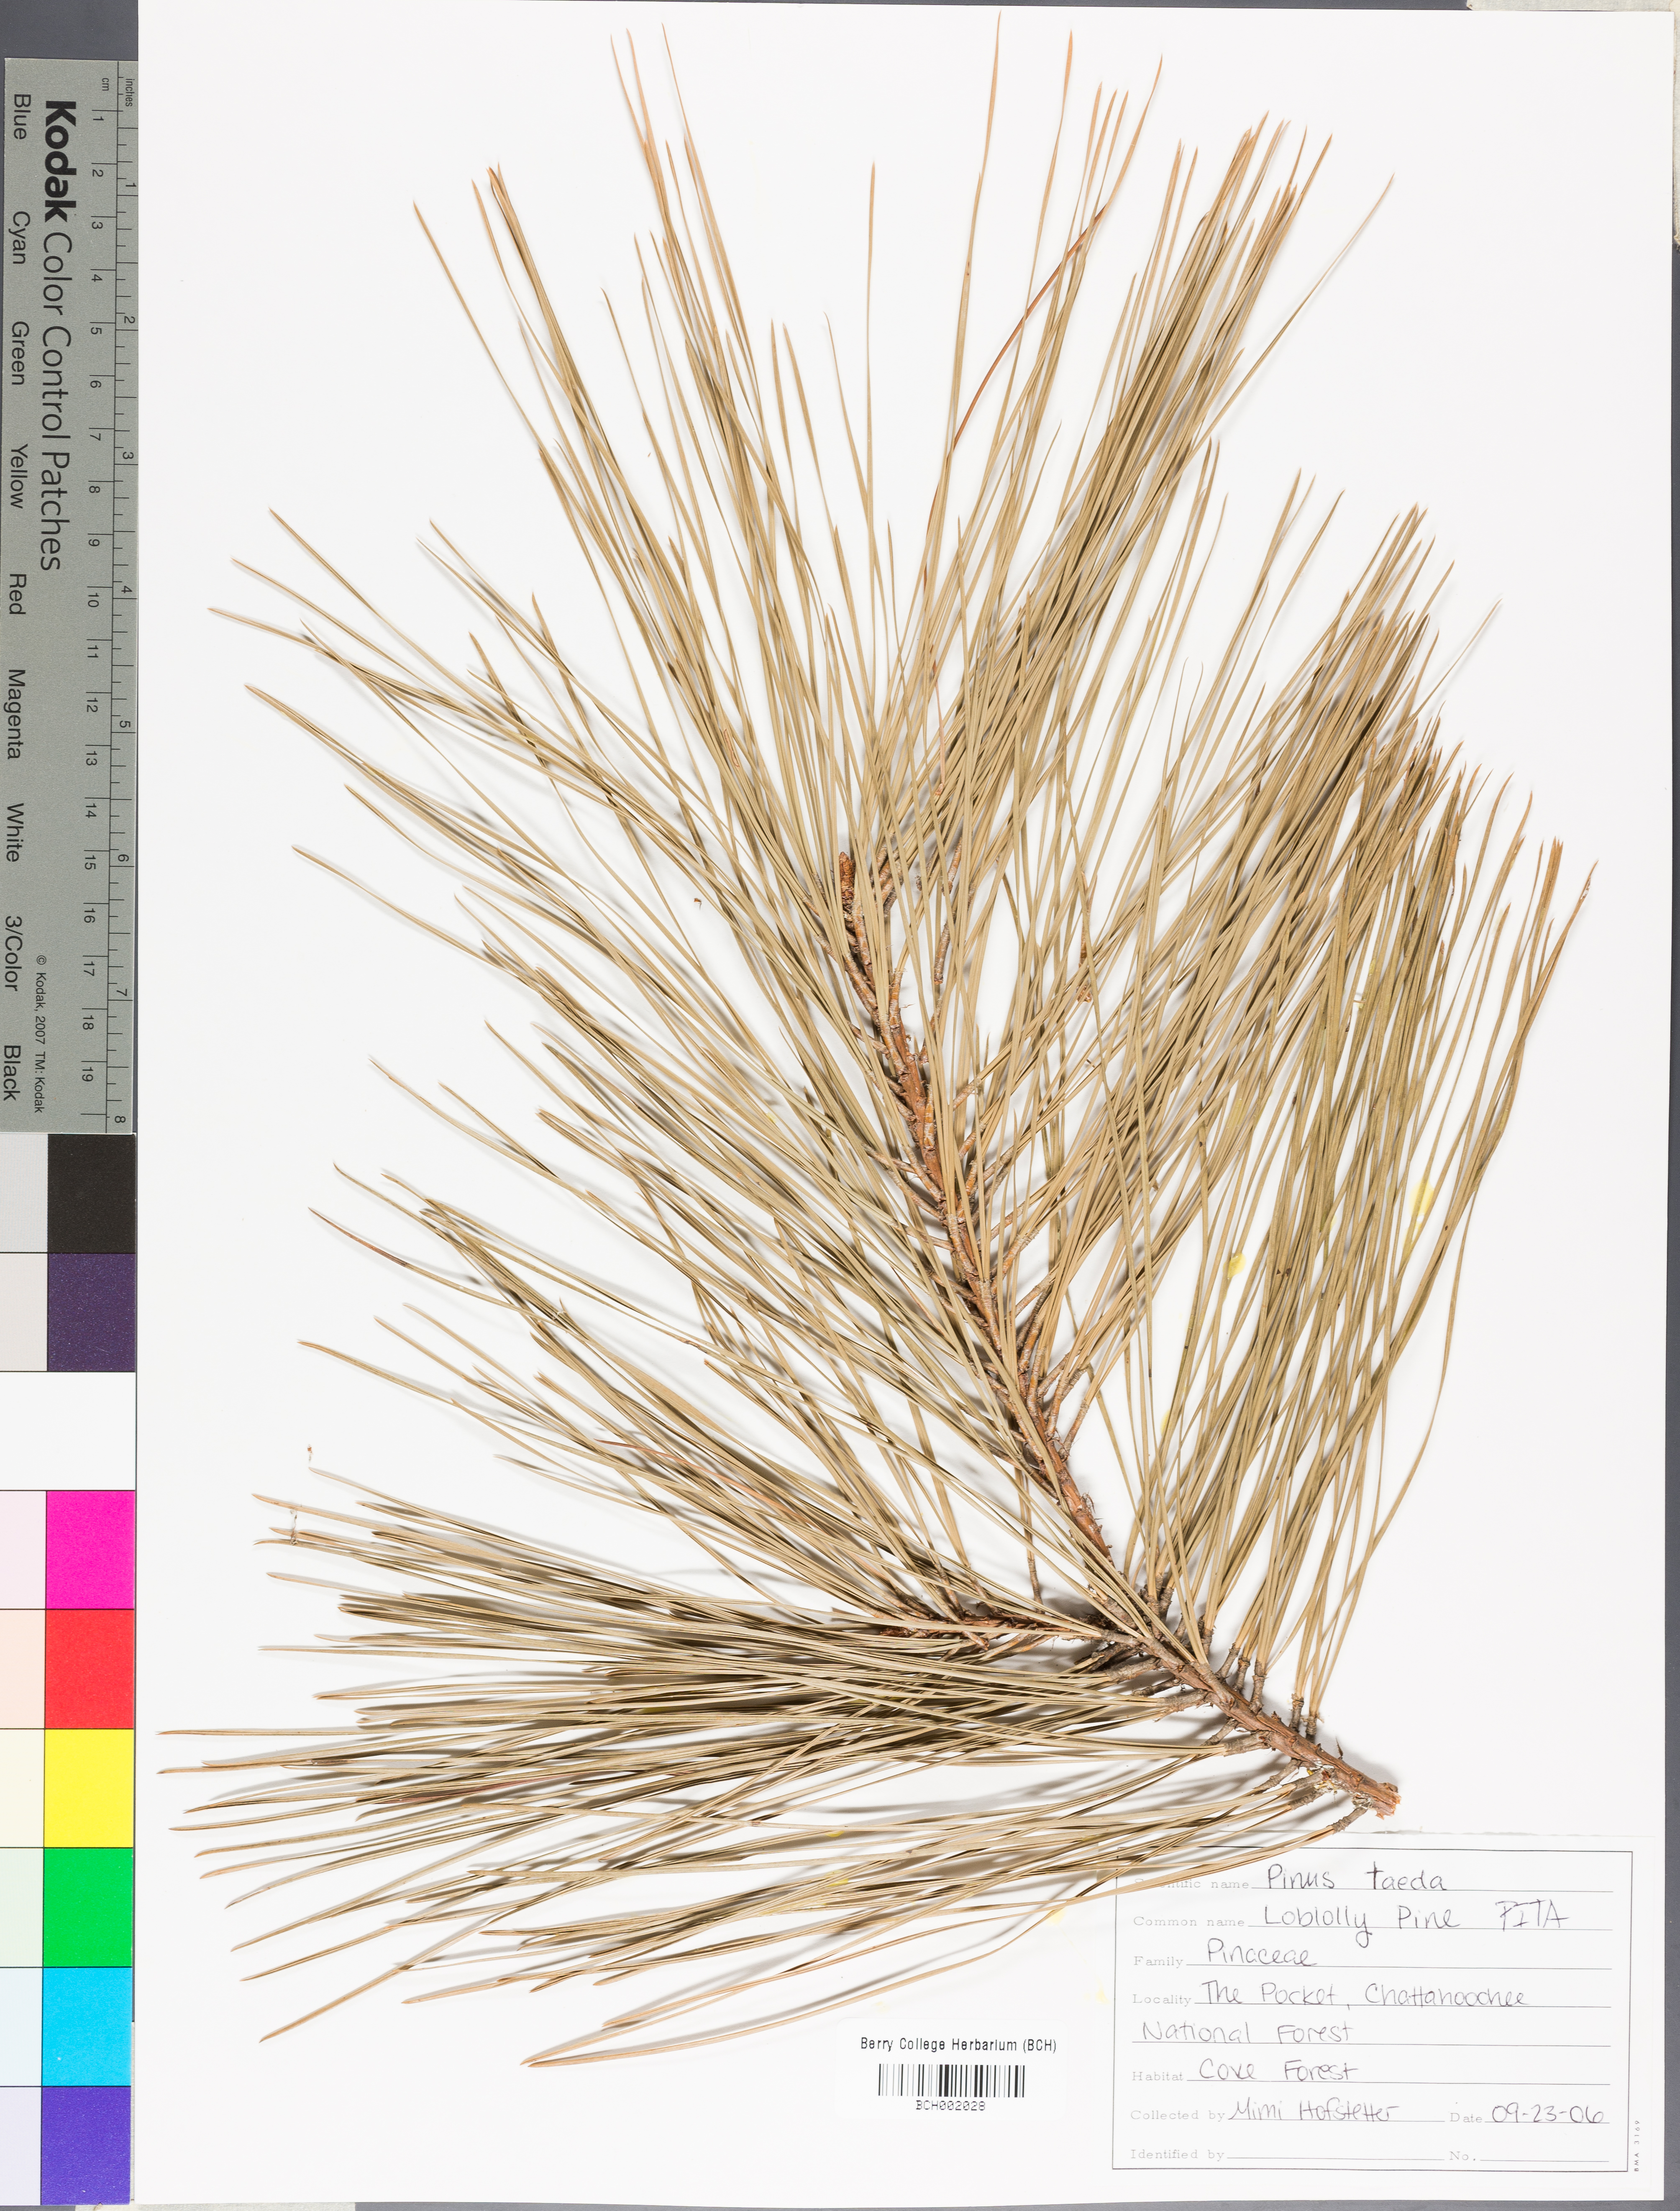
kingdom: Plantae
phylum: Tracheophyta
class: Pinopsida
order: Pinales
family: Pinaceae
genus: Pinus
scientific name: Pinus taeda
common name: Loblolly pine
